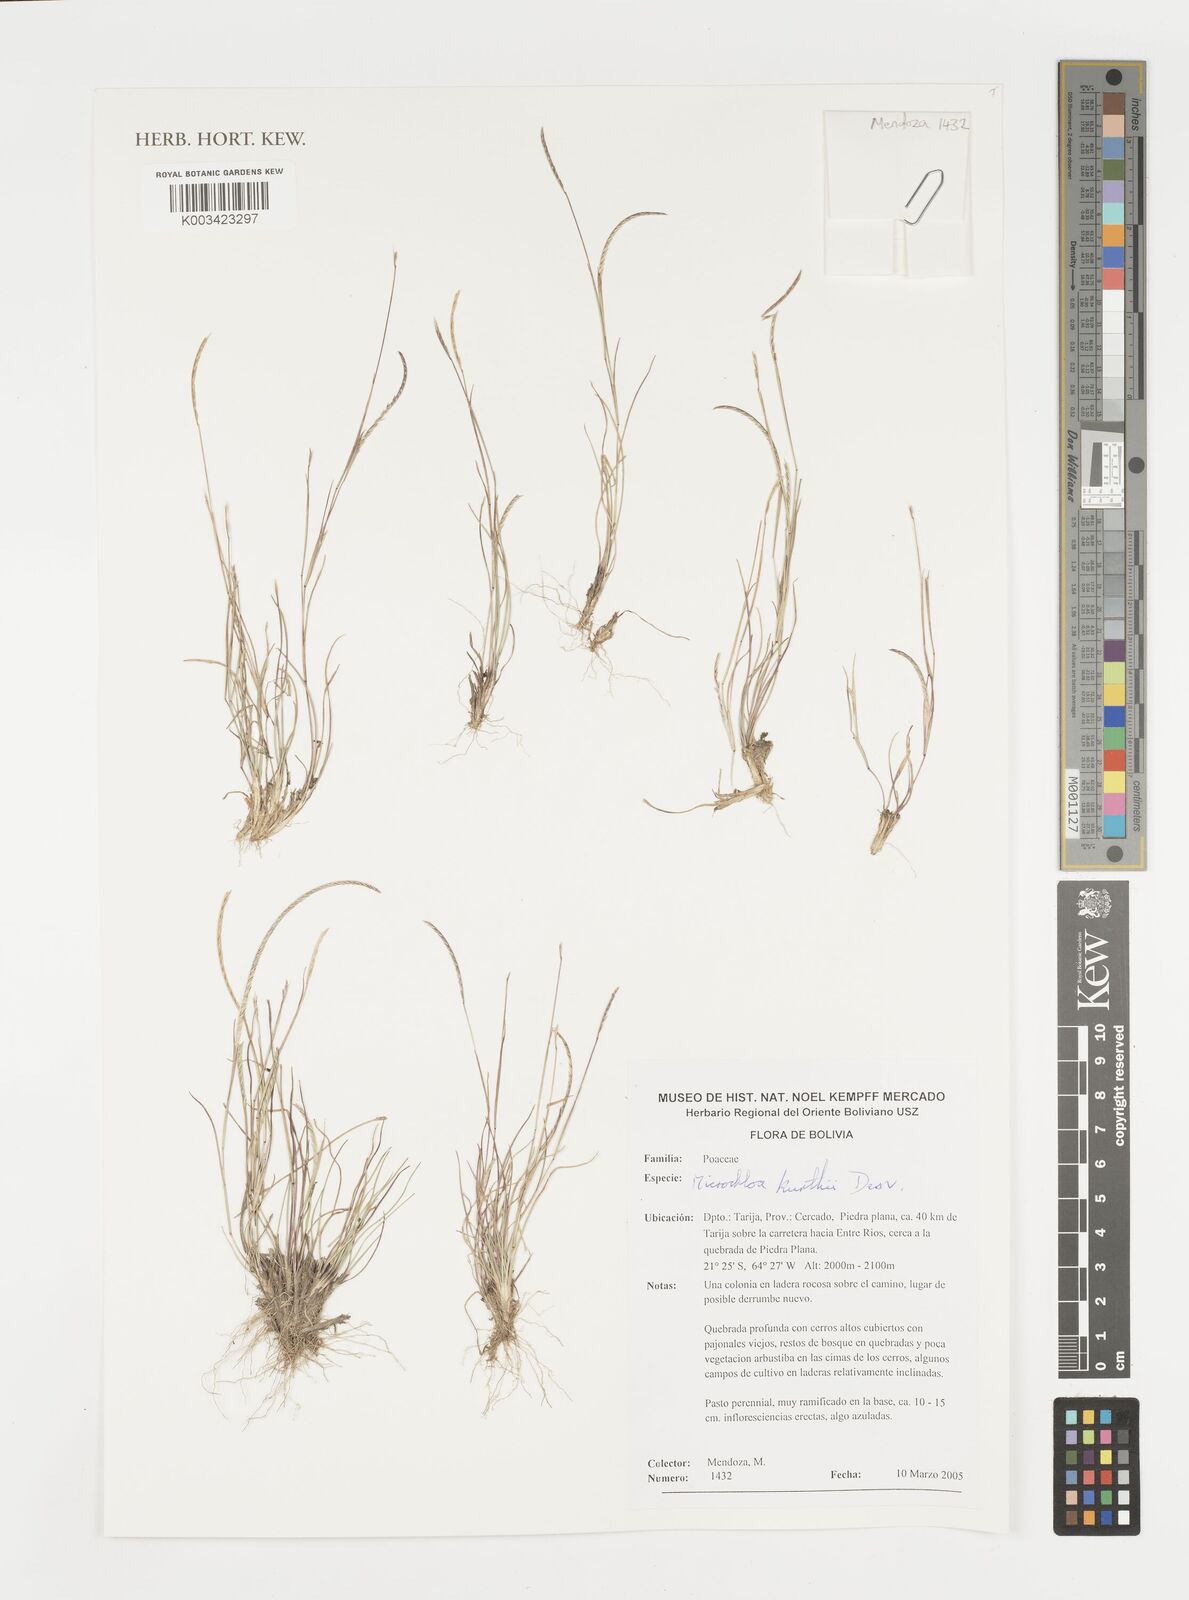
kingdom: Plantae
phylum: Tracheophyta
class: Liliopsida
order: Poales
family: Poaceae
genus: Microchloa
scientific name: Microchloa kunthii
